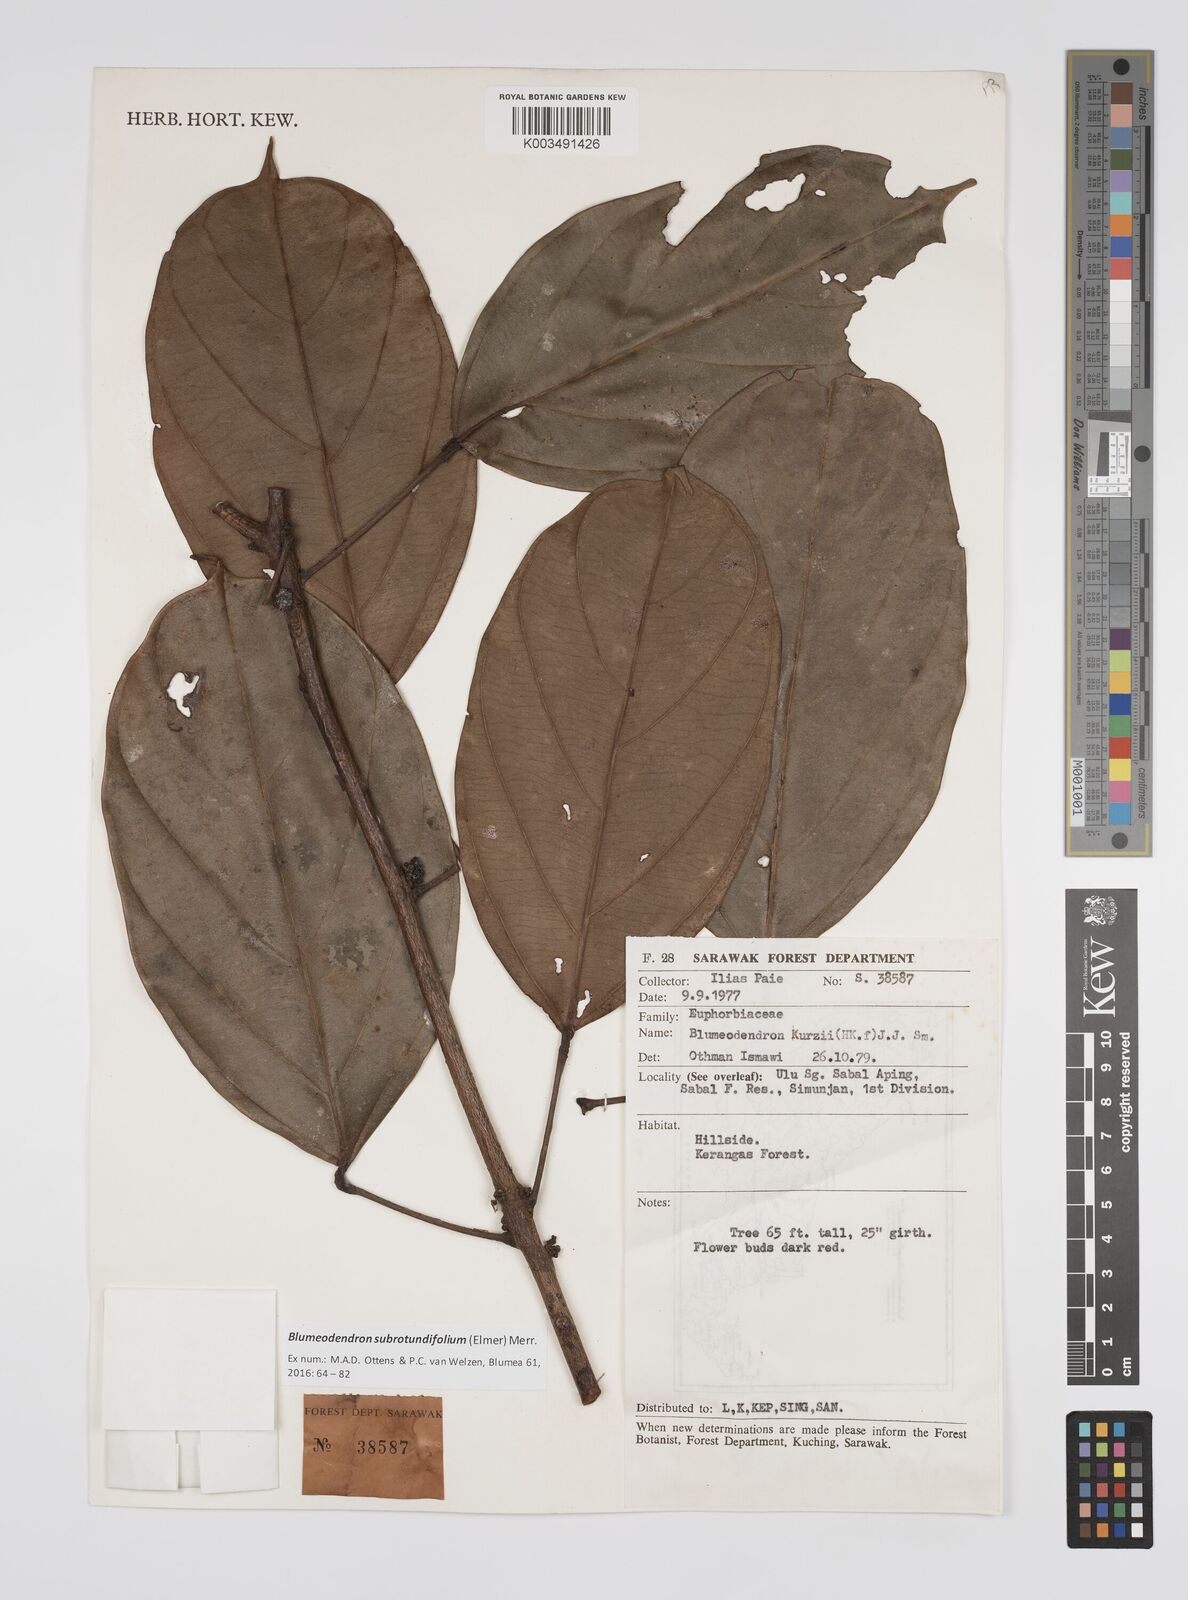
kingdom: Plantae
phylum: Tracheophyta
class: Magnoliopsida
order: Malpighiales
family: Euphorbiaceae
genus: Blumeodendron
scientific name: Blumeodendron subrotundifolium
